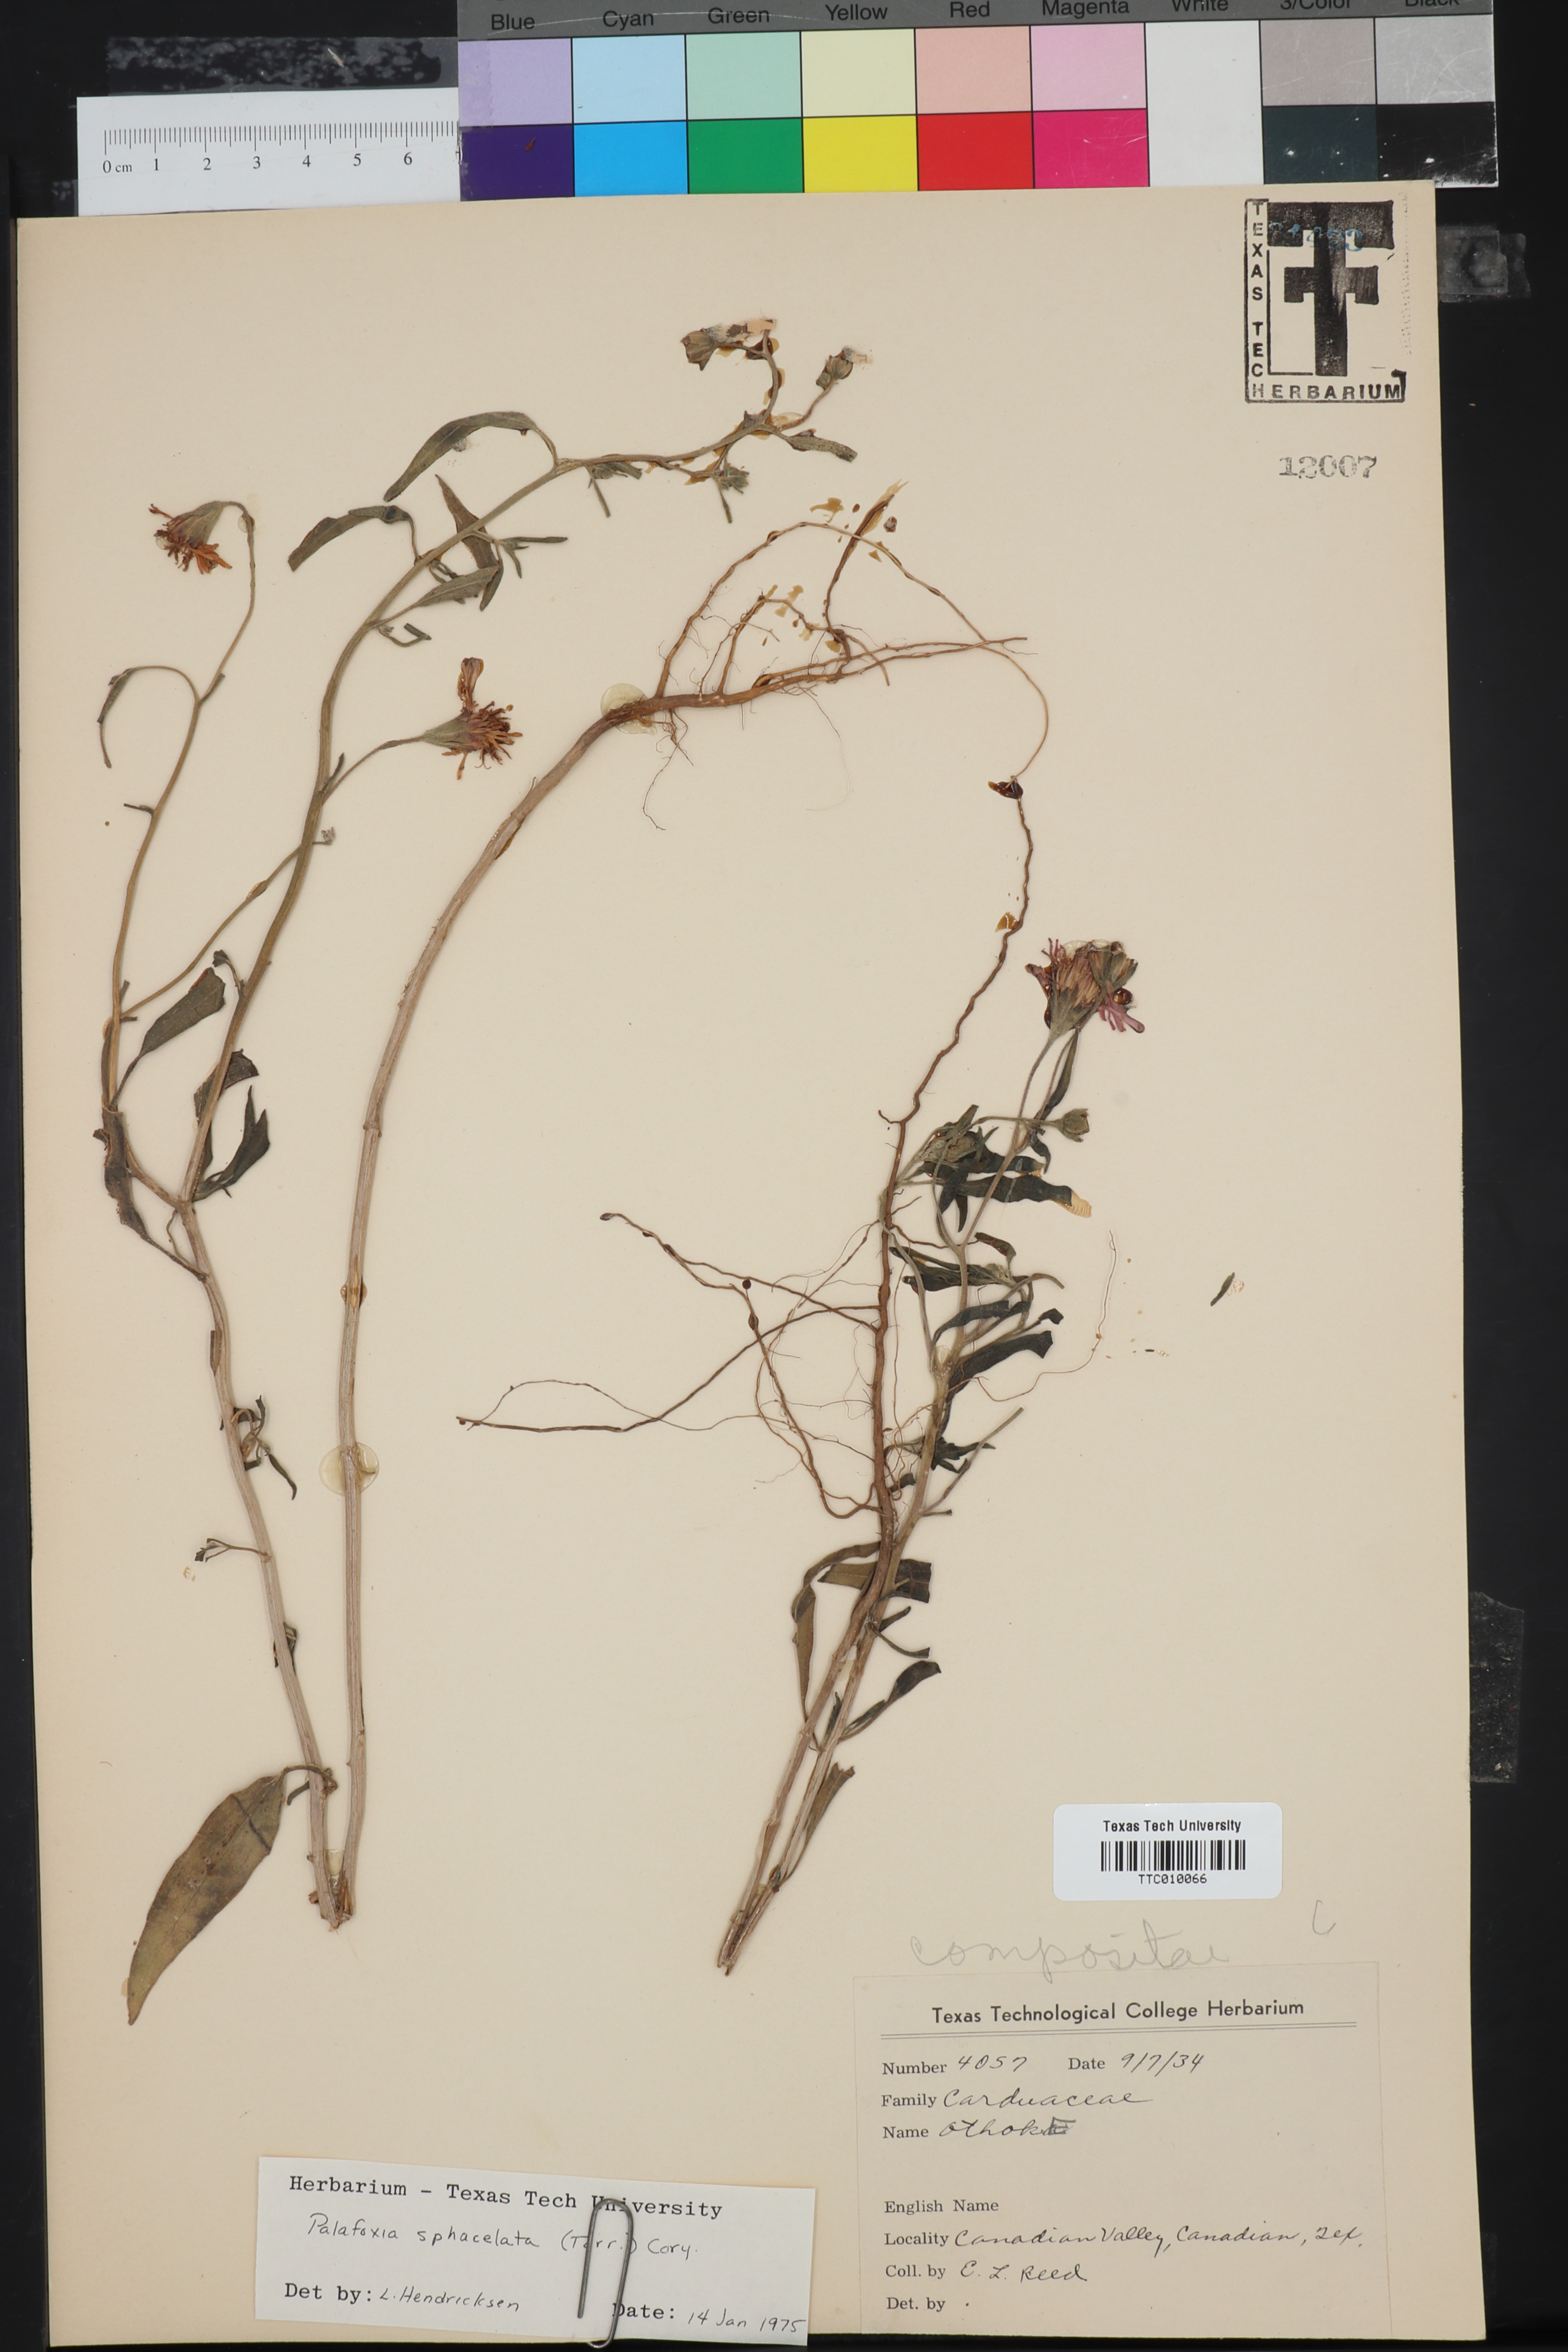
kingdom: Plantae
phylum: Tracheophyta
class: Magnoliopsida
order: Asterales
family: Asteraceae
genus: Palafoxia
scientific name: Palafoxia sphacelata
